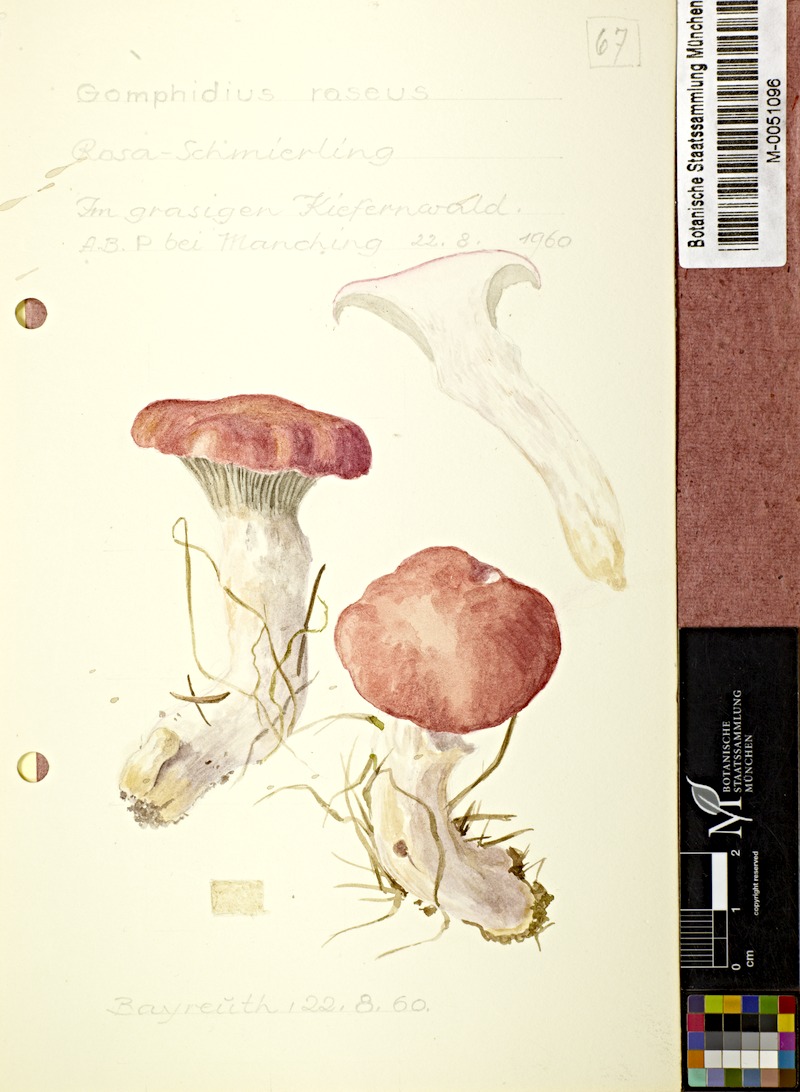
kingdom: Fungi
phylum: Basidiomycota
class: Agaricomycetes
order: Boletales
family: Gomphidiaceae
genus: Gomphidius
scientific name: Gomphidius roseus
